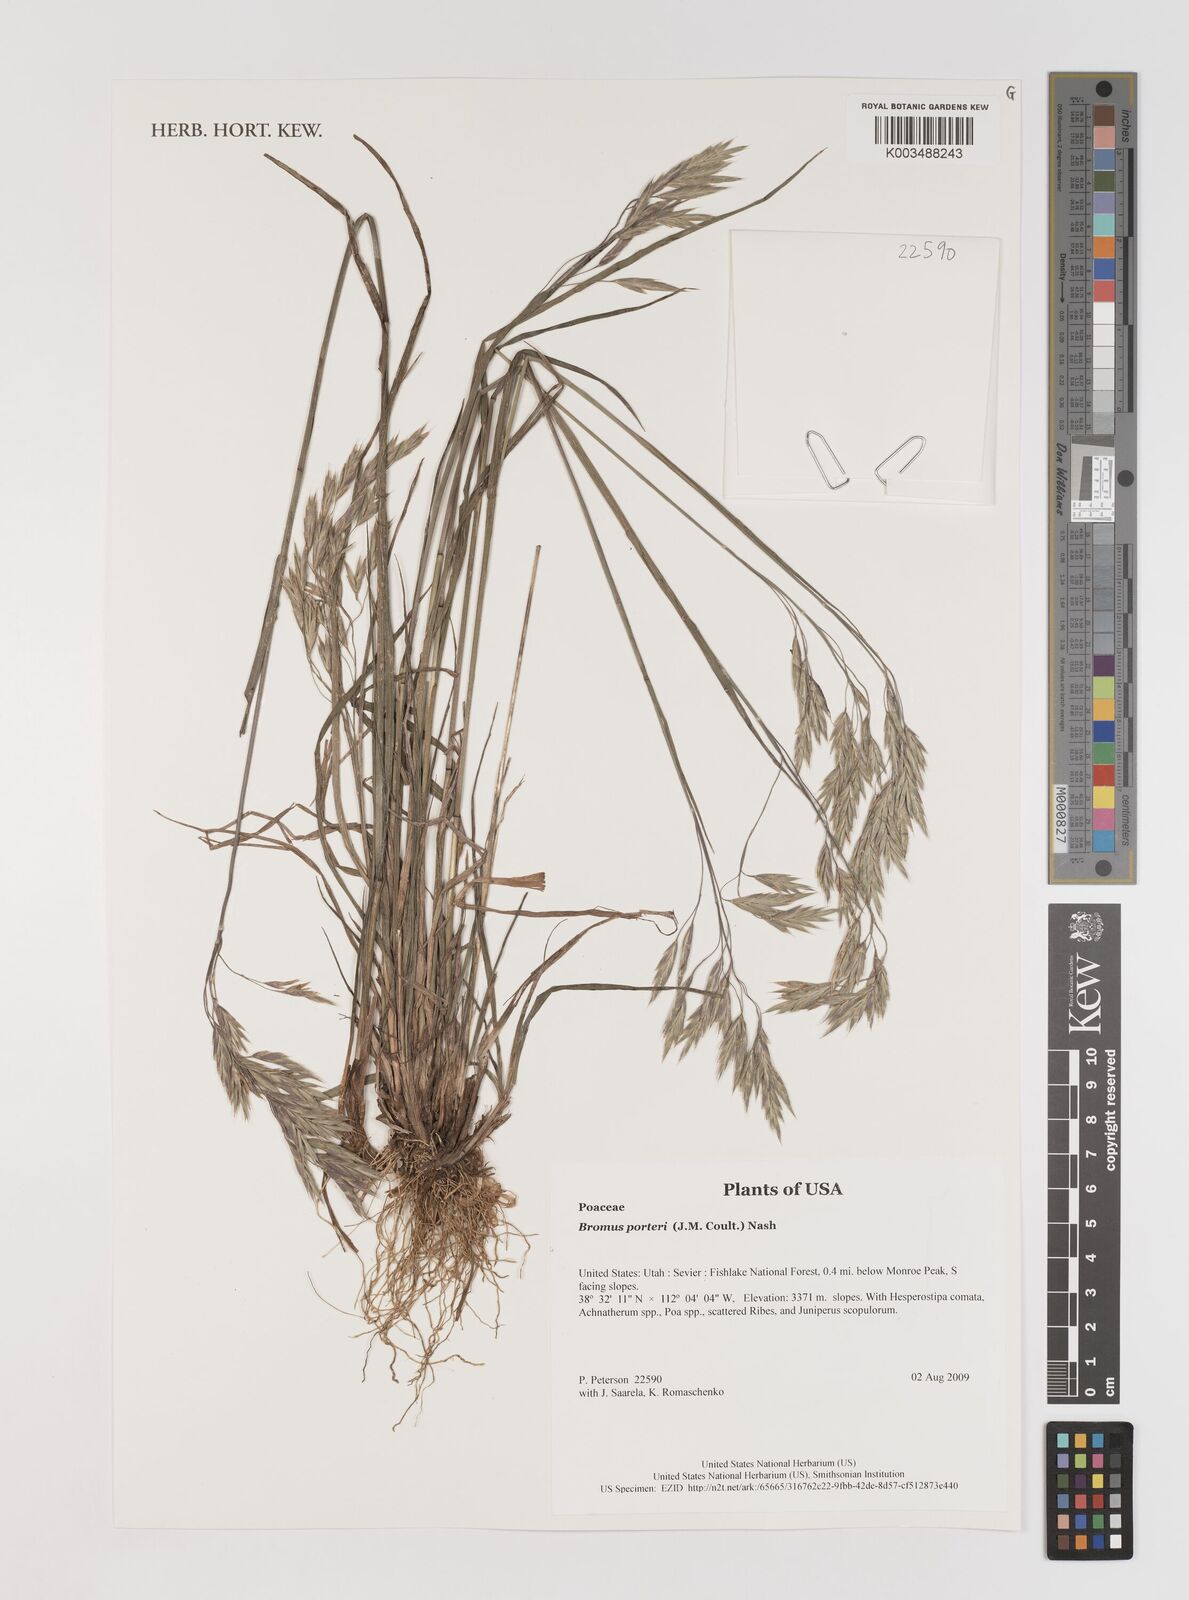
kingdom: Plantae
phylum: Tracheophyta
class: Liliopsida
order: Poales
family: Poaceae
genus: Bromus
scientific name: Bromus porteri
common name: Nodding brome
